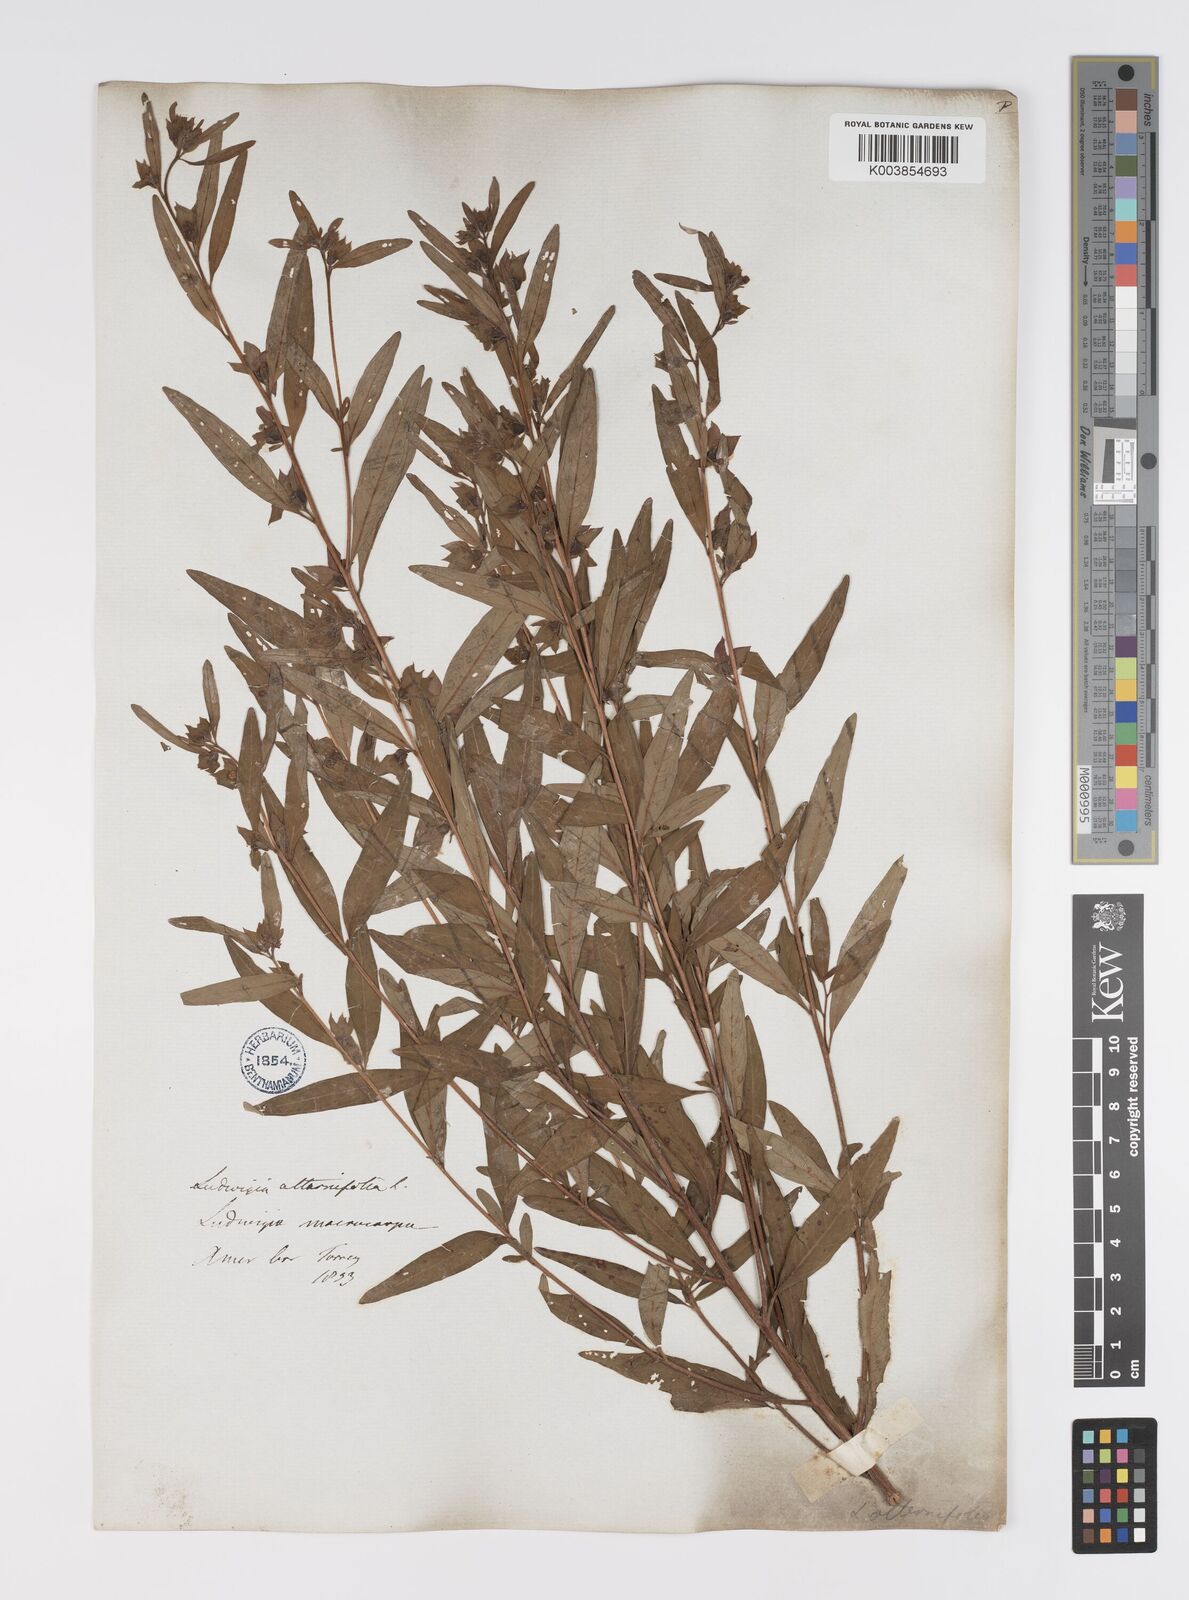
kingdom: Plantae
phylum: Tracheophyta
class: Magnoliopsida
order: Myrtales
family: Onagraceae
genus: Ludwigia
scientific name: Ludwigia alternifolia
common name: Rattlebox
